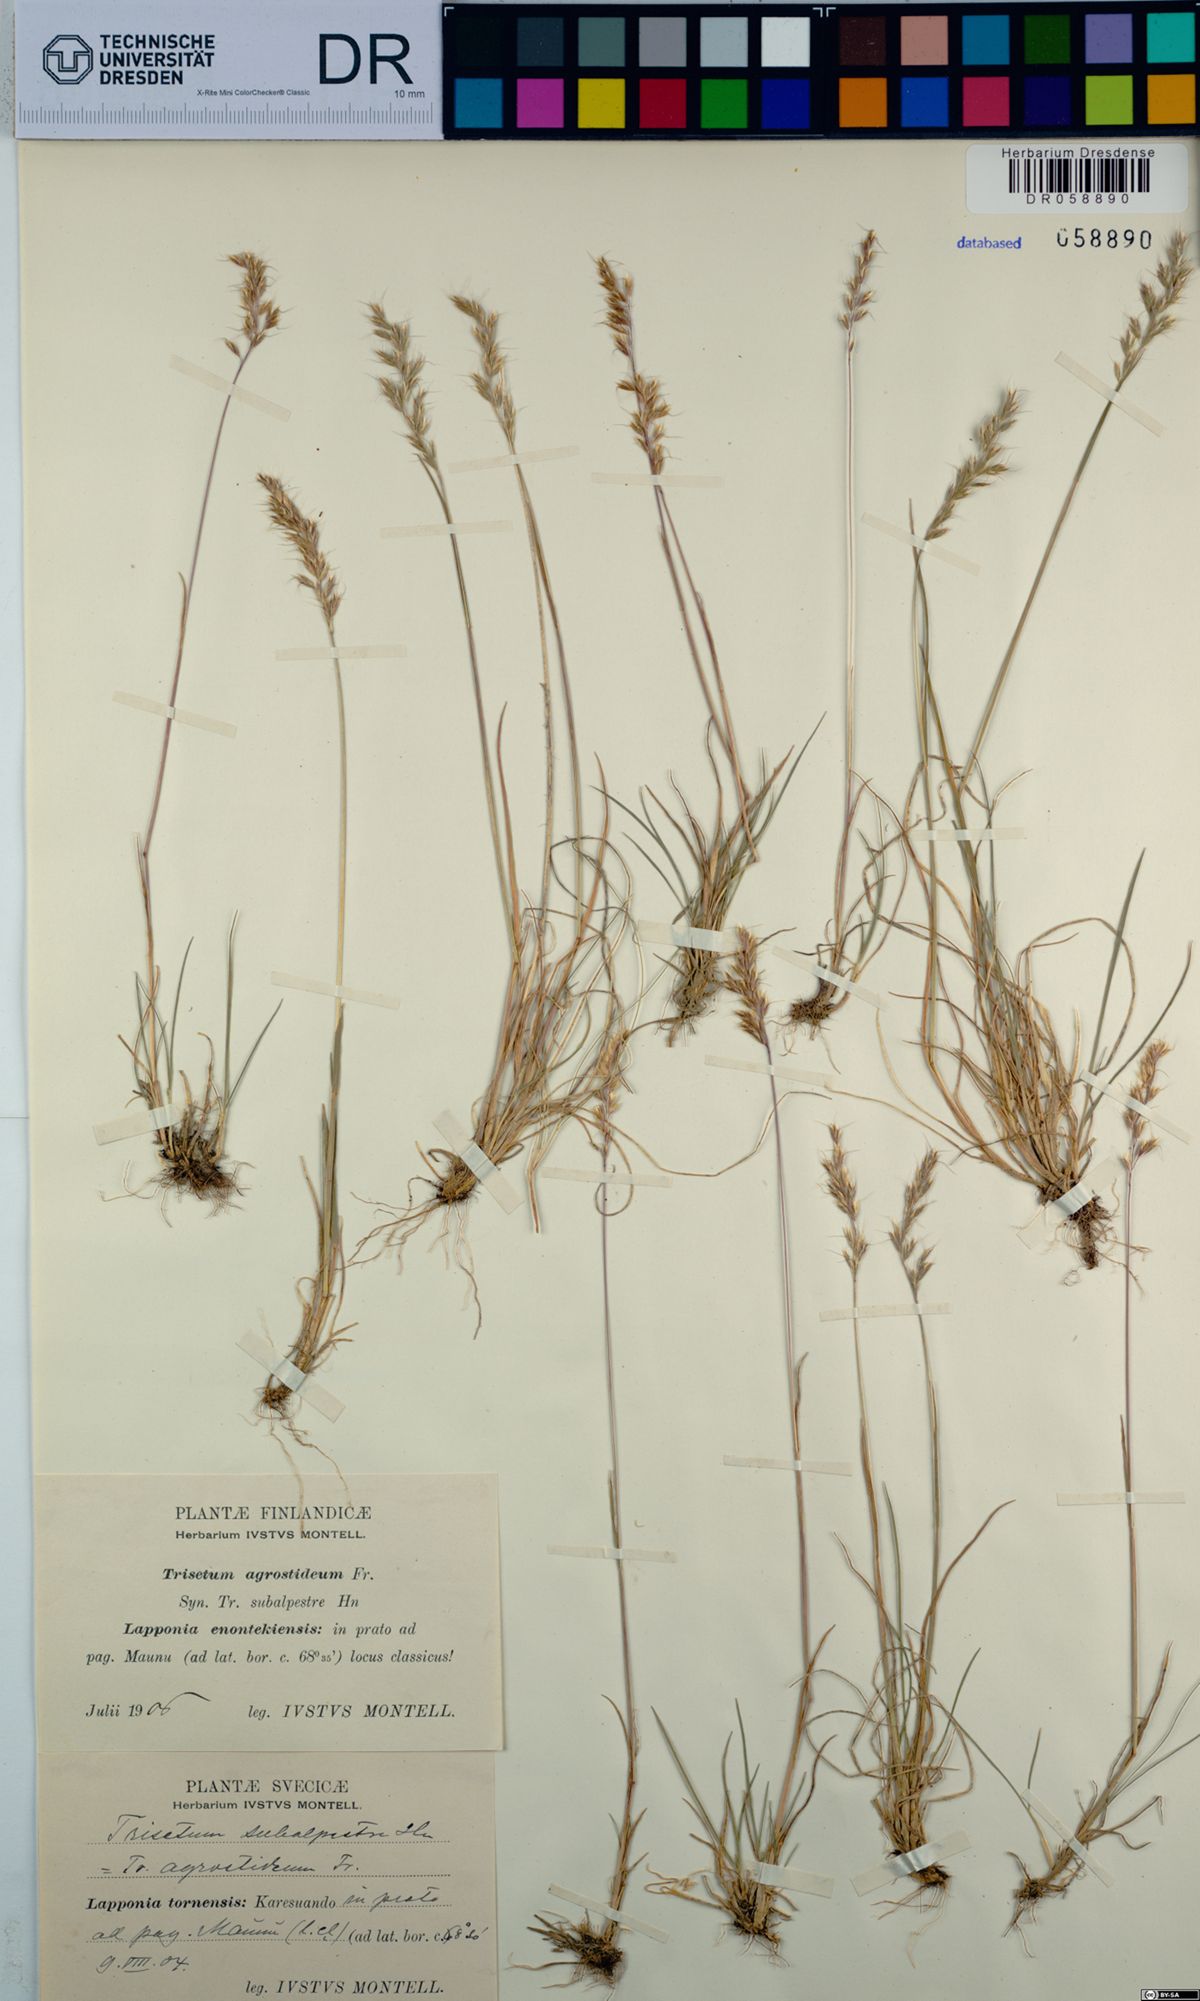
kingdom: Plantae
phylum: Tracheophyta
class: Liliopsida
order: Poales
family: Poaceae
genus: Koeleria
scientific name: Koeleria subalpestris
